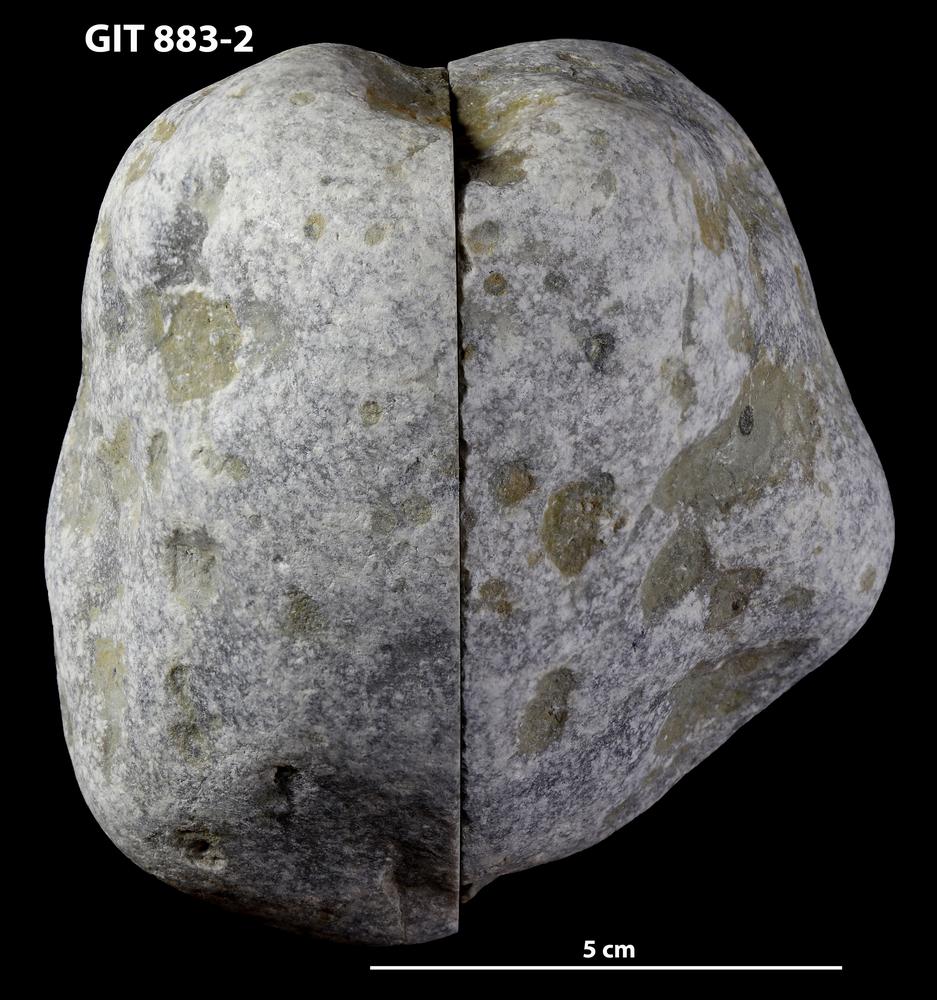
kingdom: Animalia
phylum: Porifera
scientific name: Porifera
